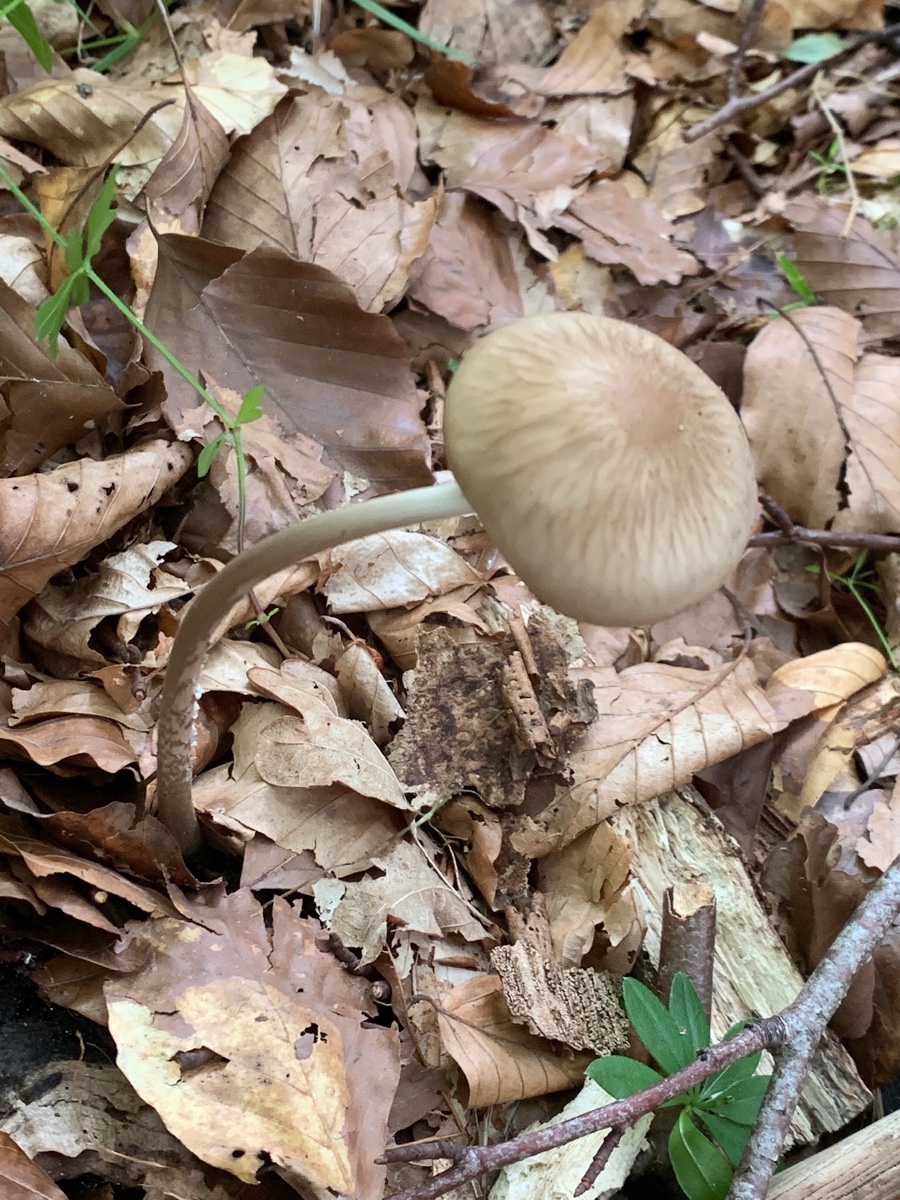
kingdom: Fungi
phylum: Basidiomycota
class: Agaricomycetes
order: Agaricales
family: Physalacriaceae
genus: Hymenopellis
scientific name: Hymenopellis radicata
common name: almindelig pælerodshat
